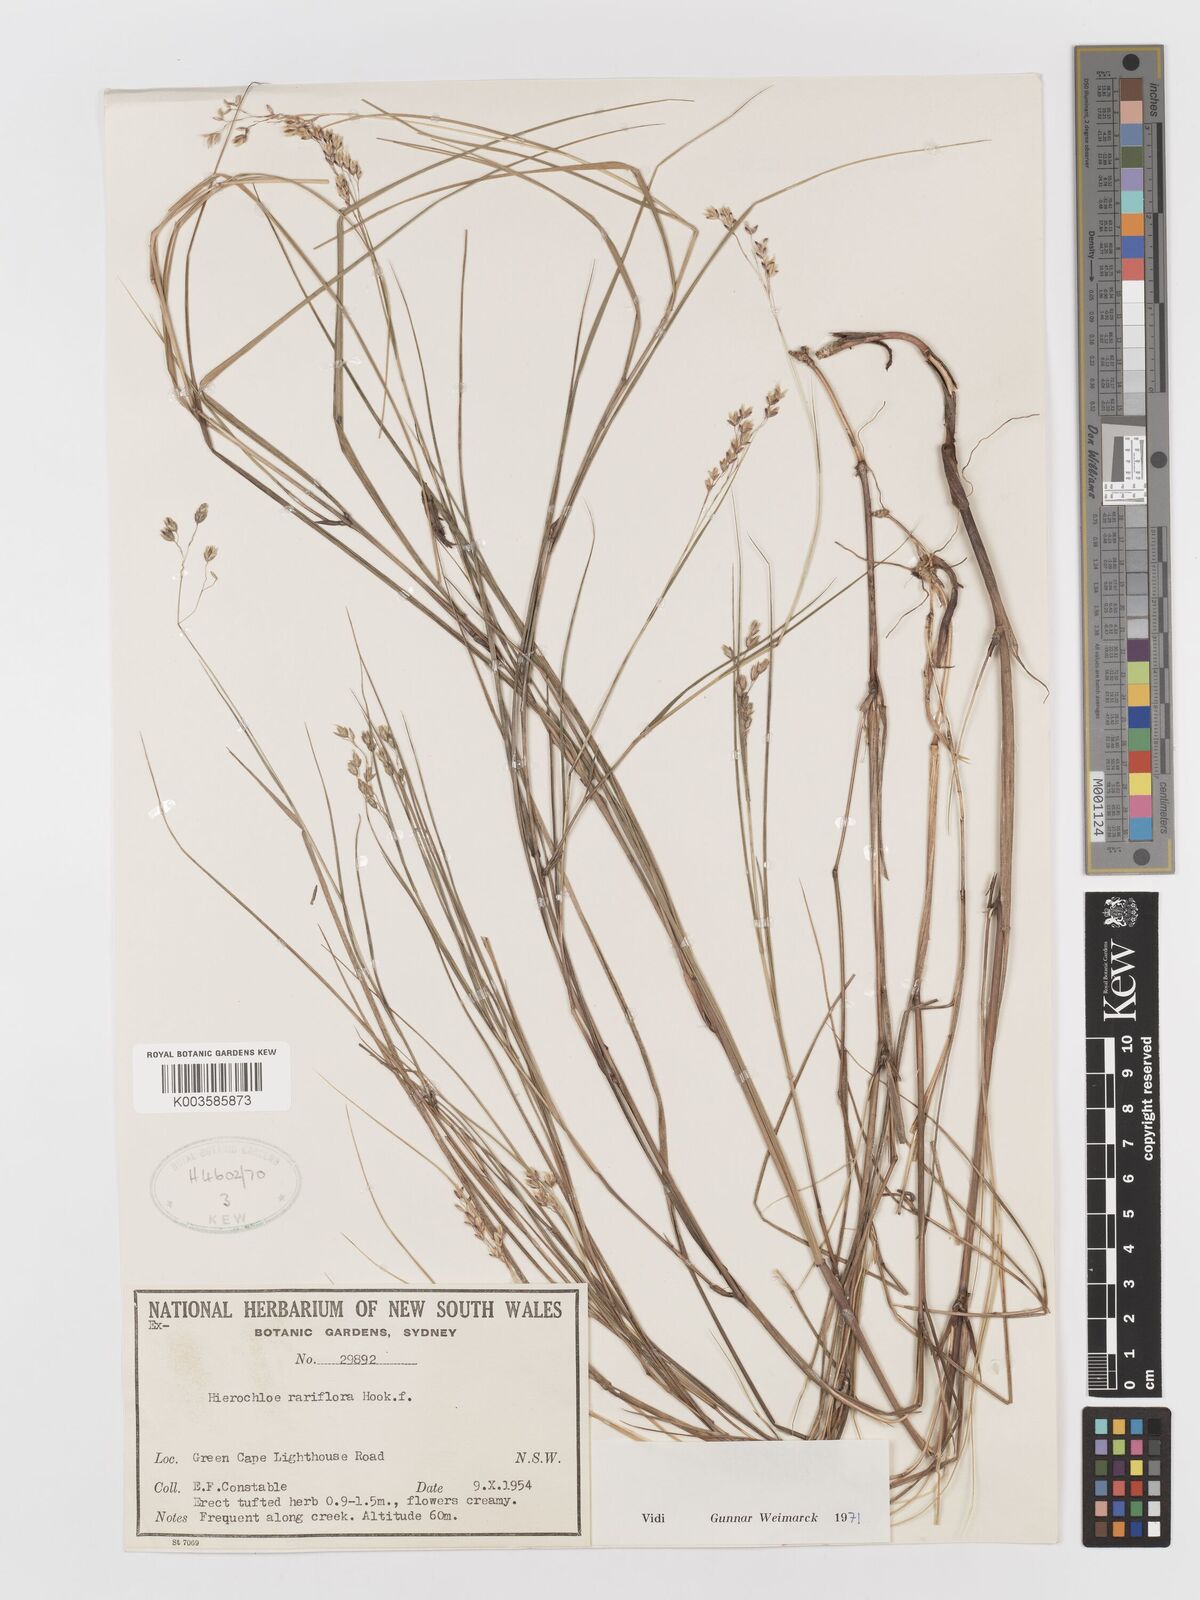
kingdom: Plantae
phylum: Tracheophyta
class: Liliopsida
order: Poales
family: Poaceae
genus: Anthoxanthum
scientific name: Anthoxanthum rariflorum
